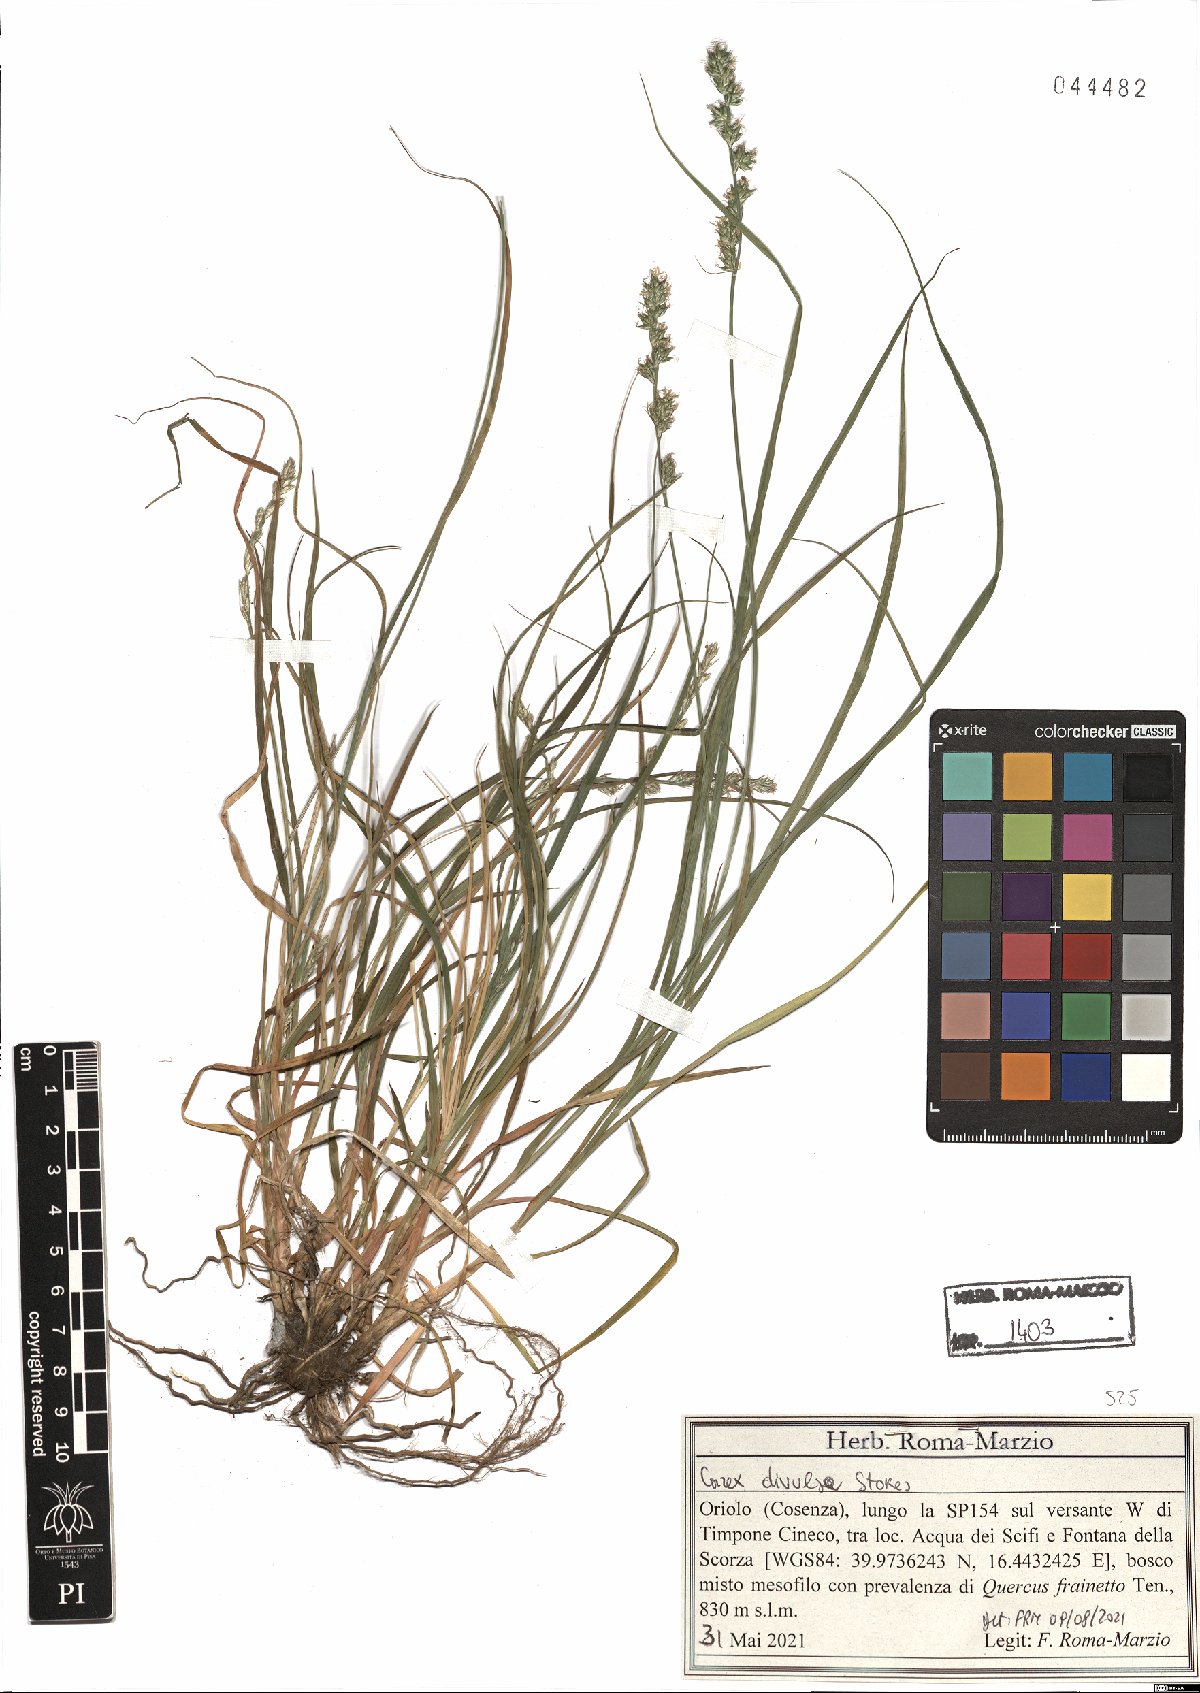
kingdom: Plantae
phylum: Tracheophyta
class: Liliopsida
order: Poales
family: Cyperaceae
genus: Carex
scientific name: Carex divulsa
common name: Grassland sedge
